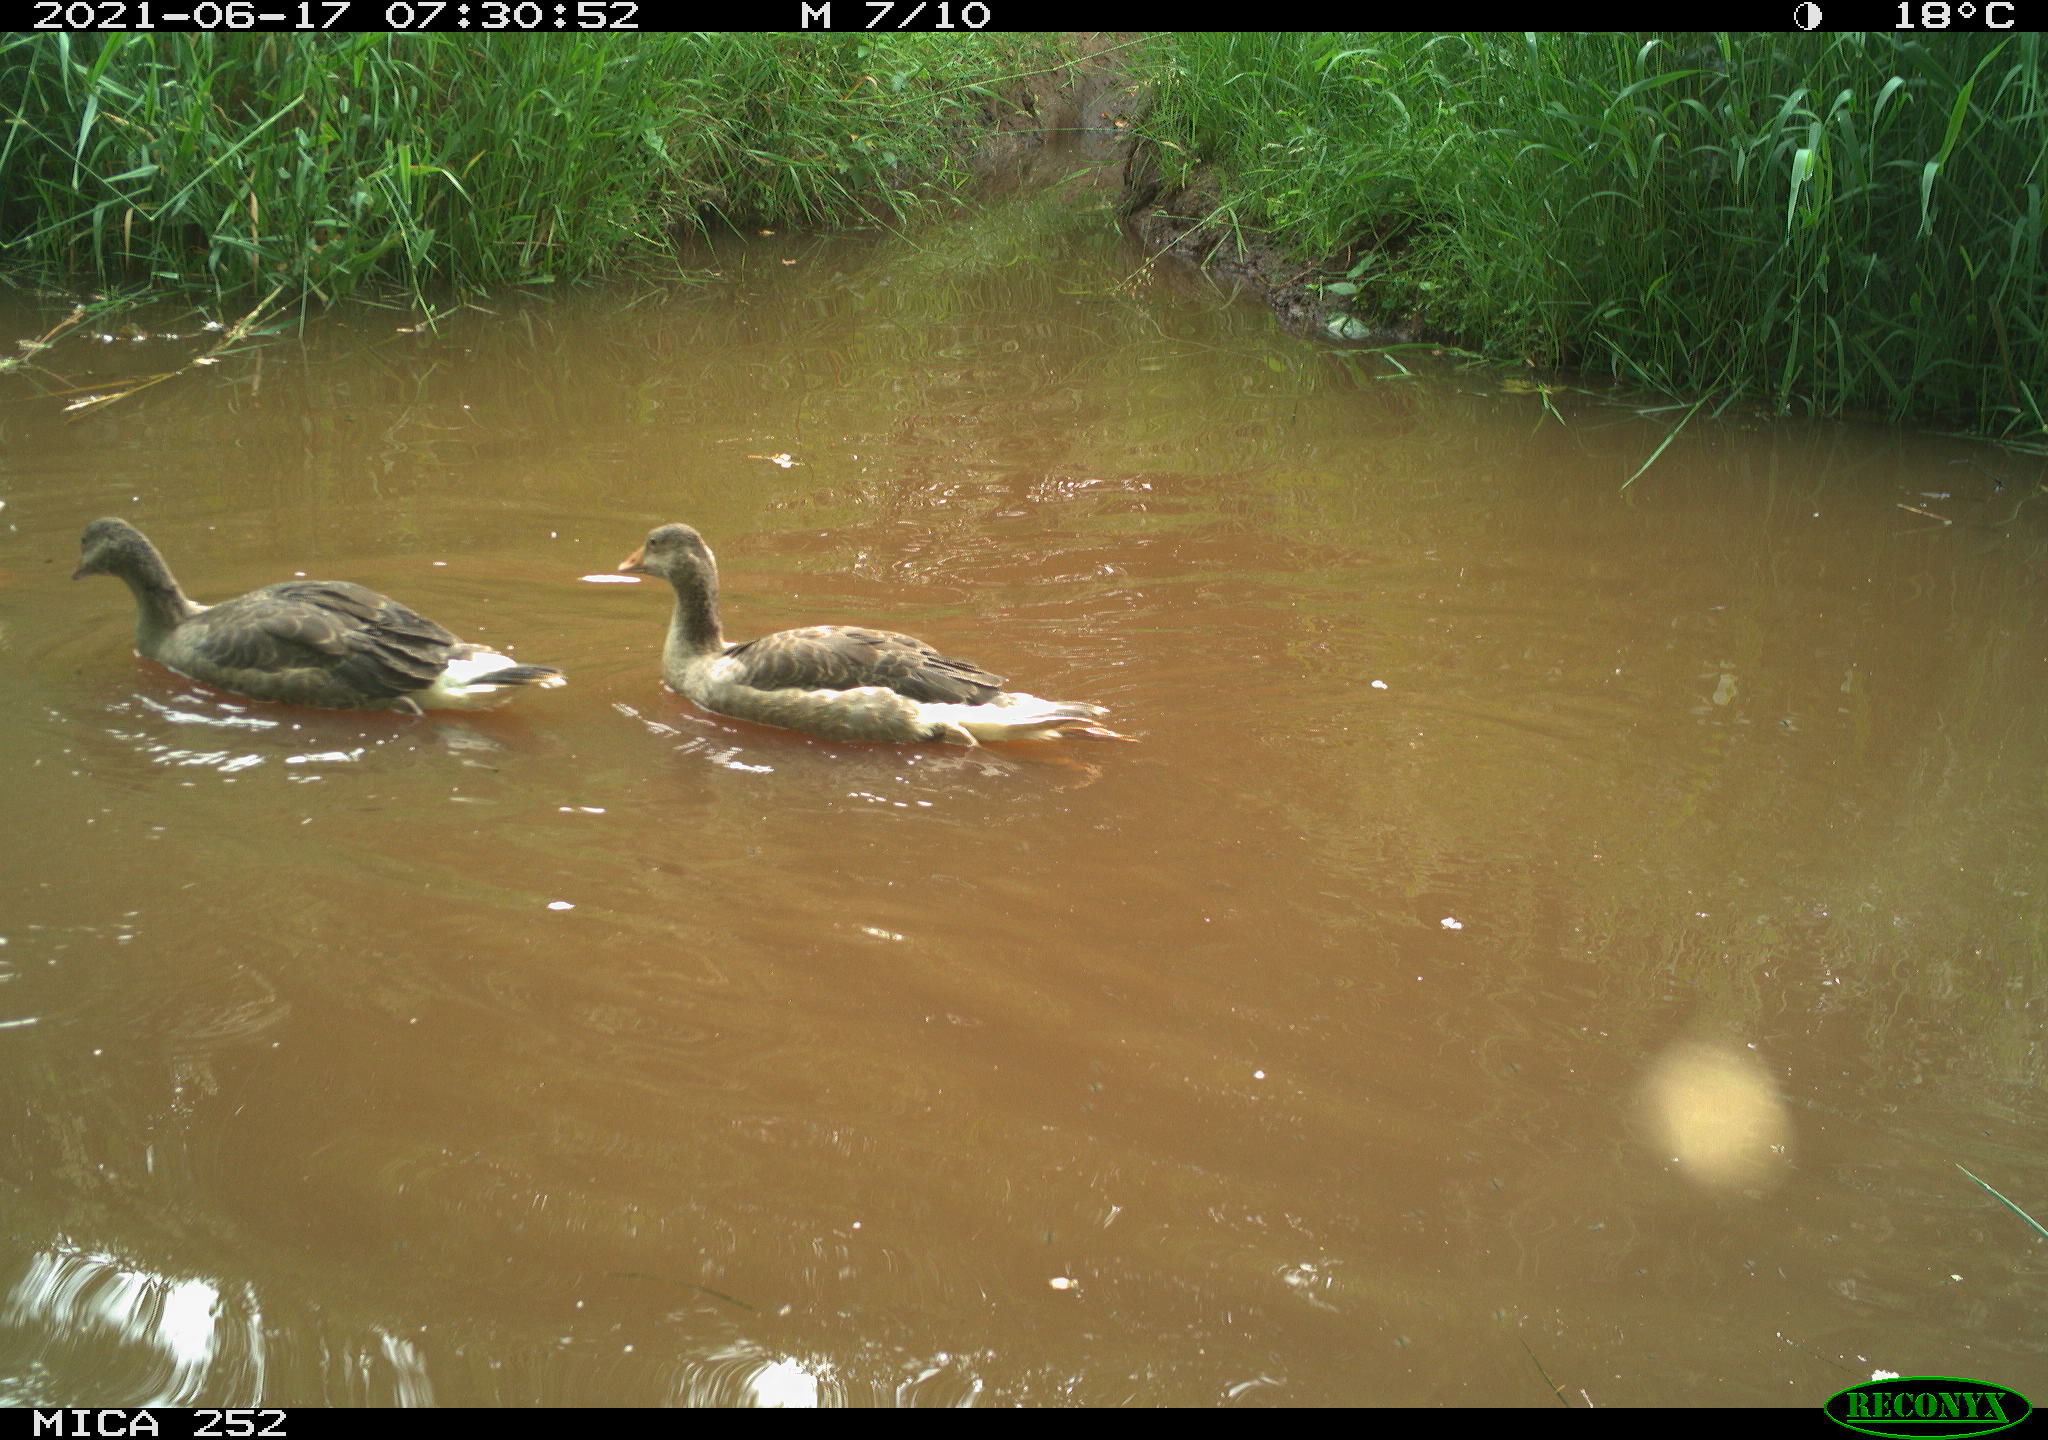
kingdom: Animalia
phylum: Chordata
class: Aves
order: Anseriformes
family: Anatidae
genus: Anser
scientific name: Anser anser
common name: Greylag goose
